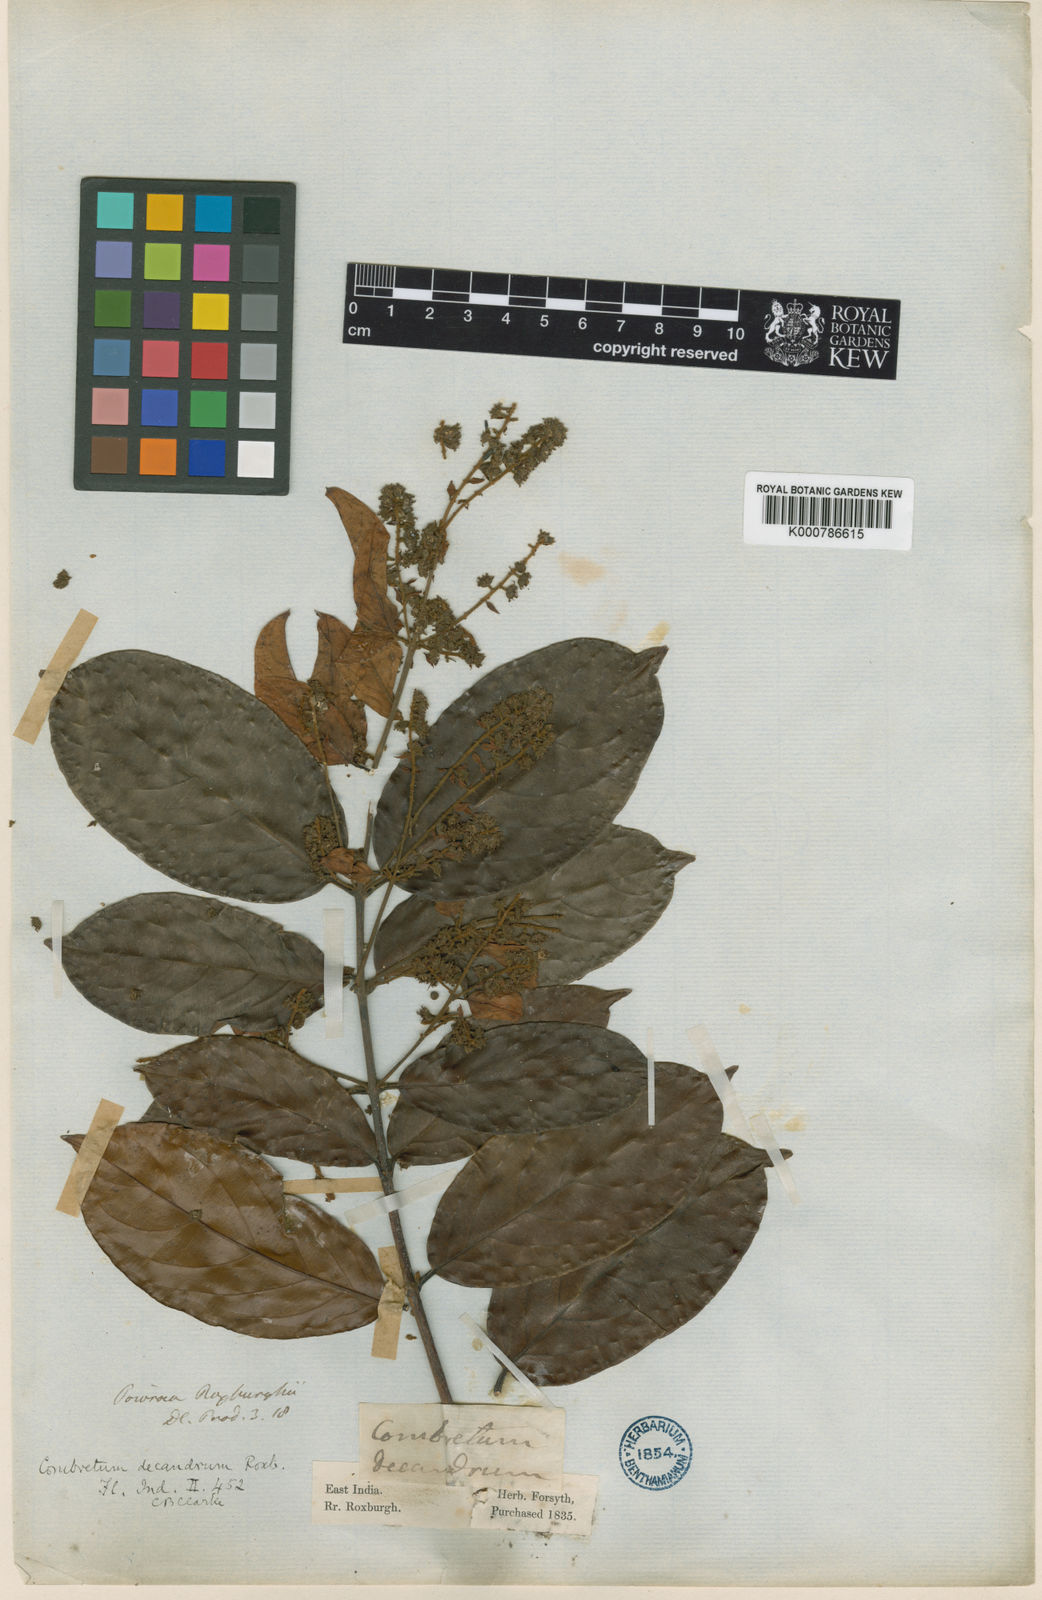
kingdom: Plantae
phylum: Tracheophyta
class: Magnoliopsida
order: Myrtales
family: Combretaceae
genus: Combretum
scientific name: Combretum roxburghii
